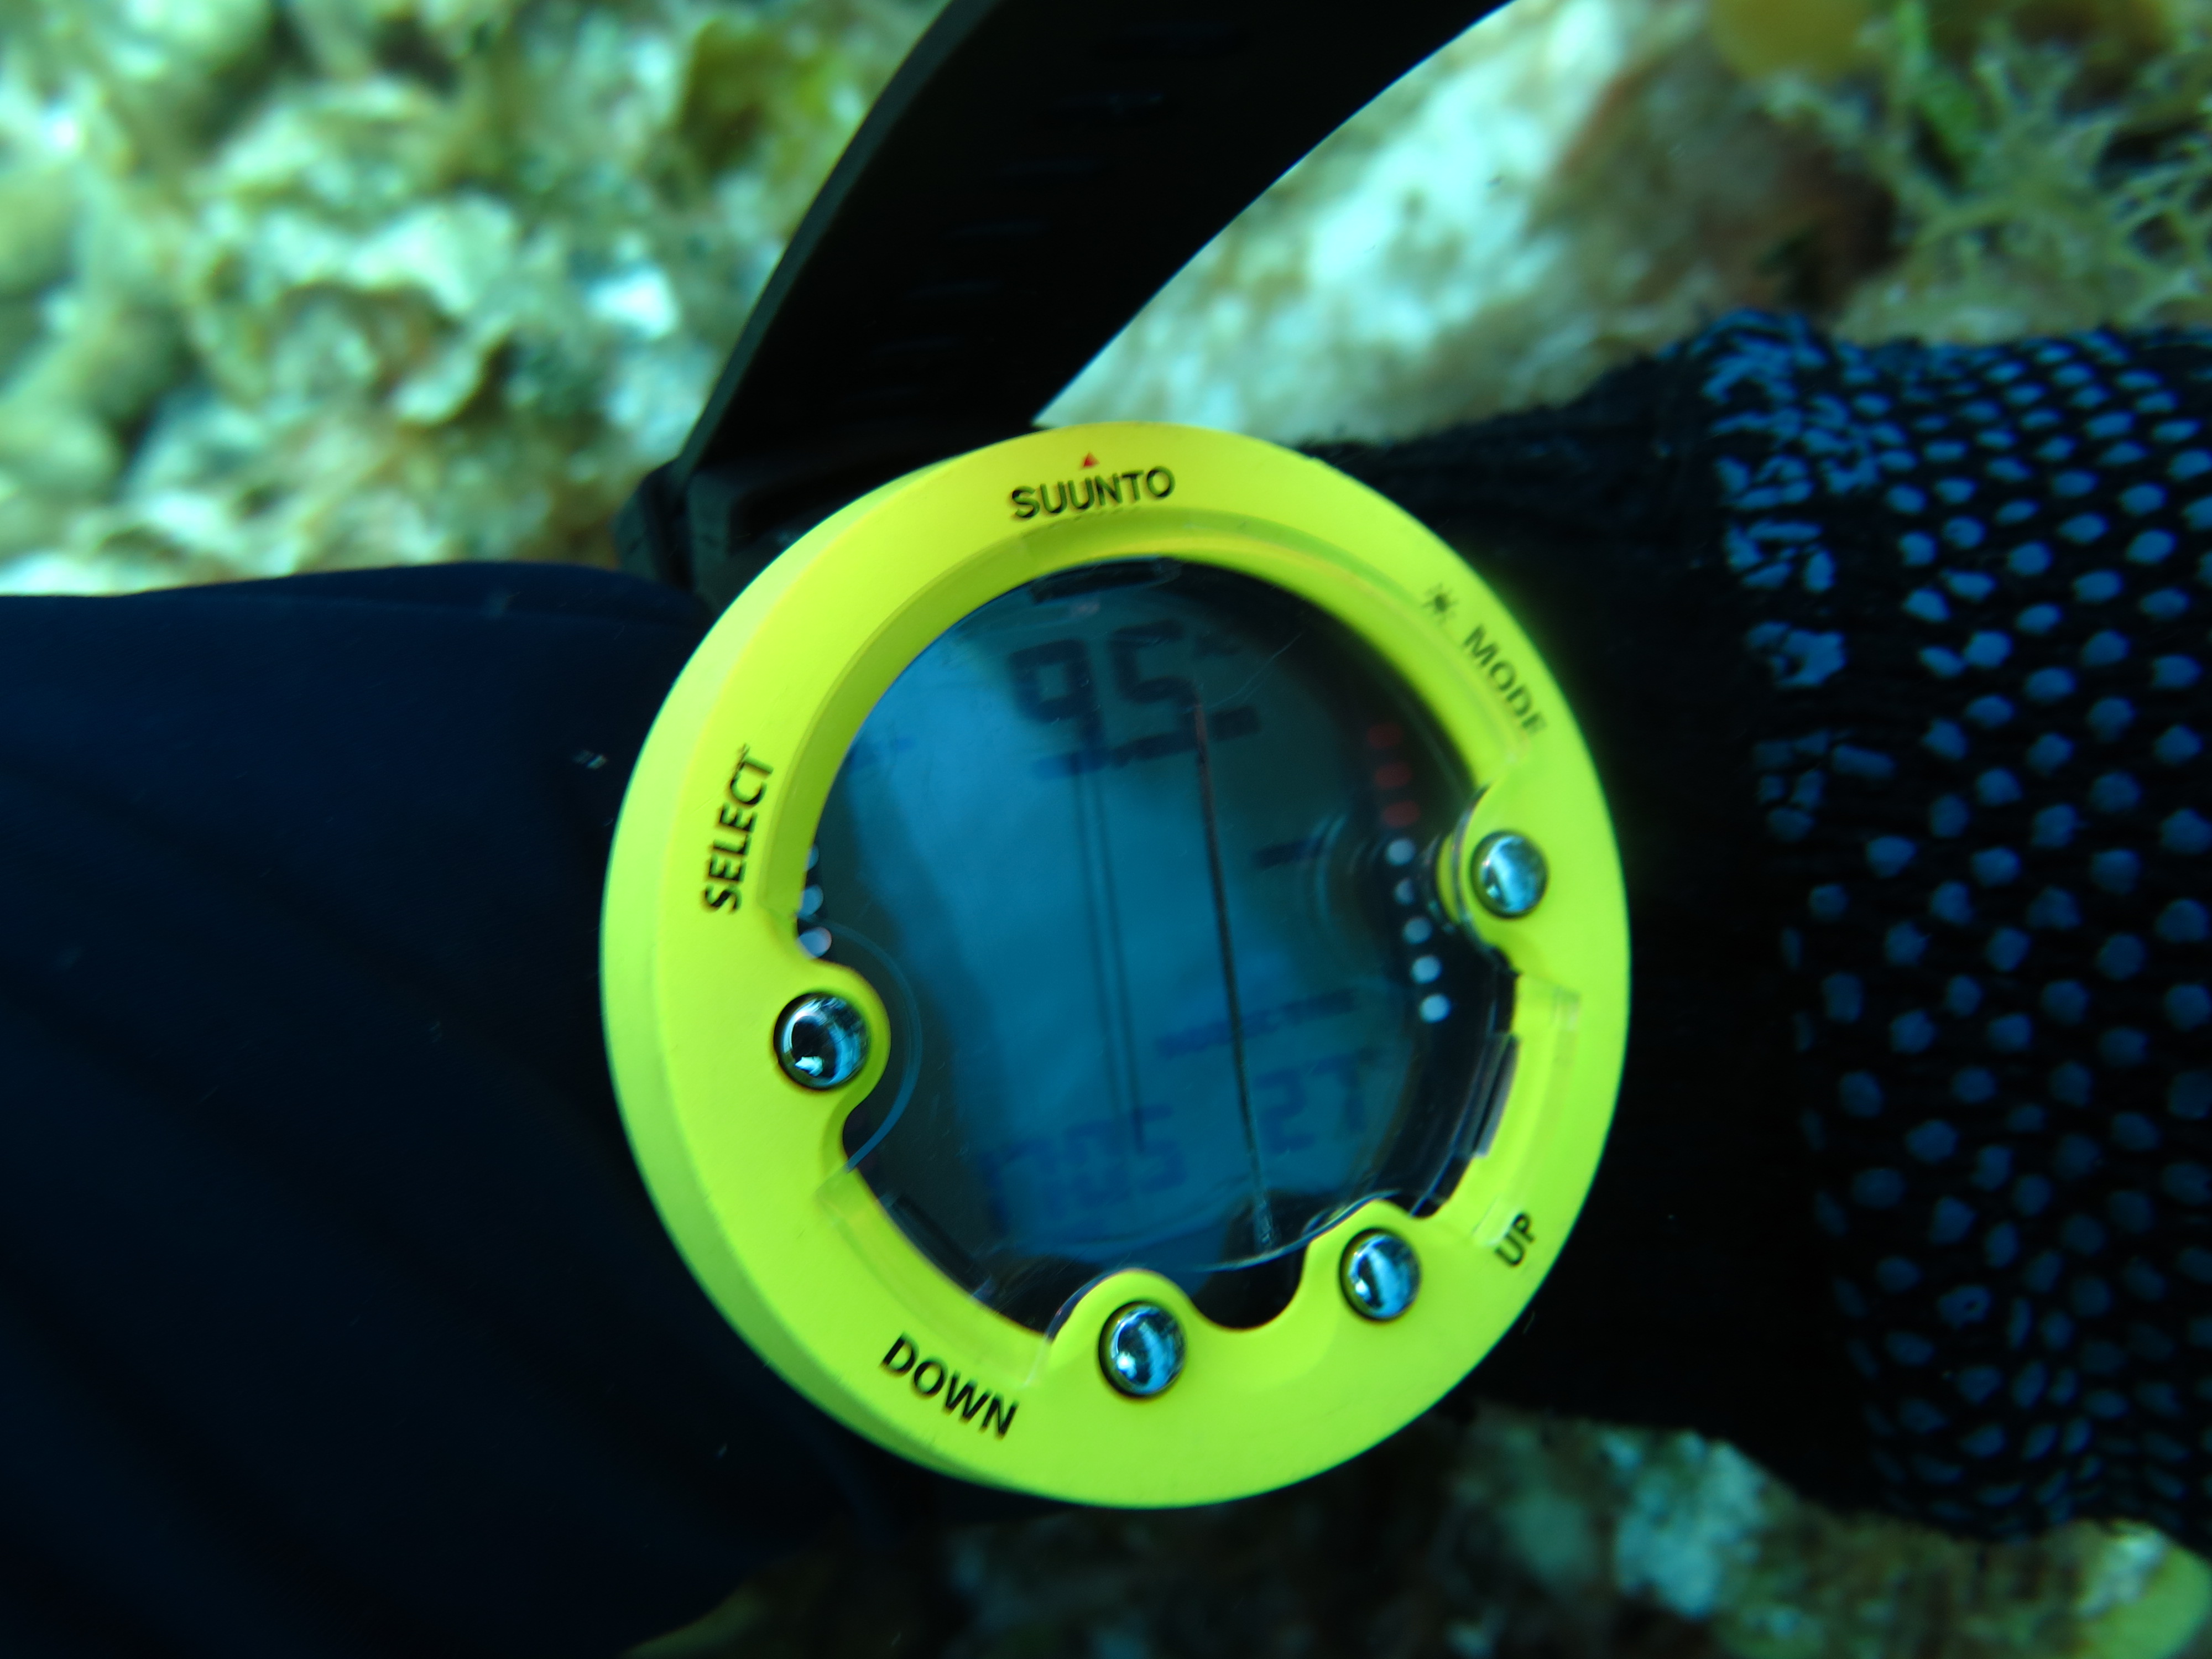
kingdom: Animalia
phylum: Porifera
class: Demospongiae
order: Verongiida
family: Aplysinidae
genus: Aiolochroia
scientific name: Aiolochroia crassa
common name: Branching tube sponge
